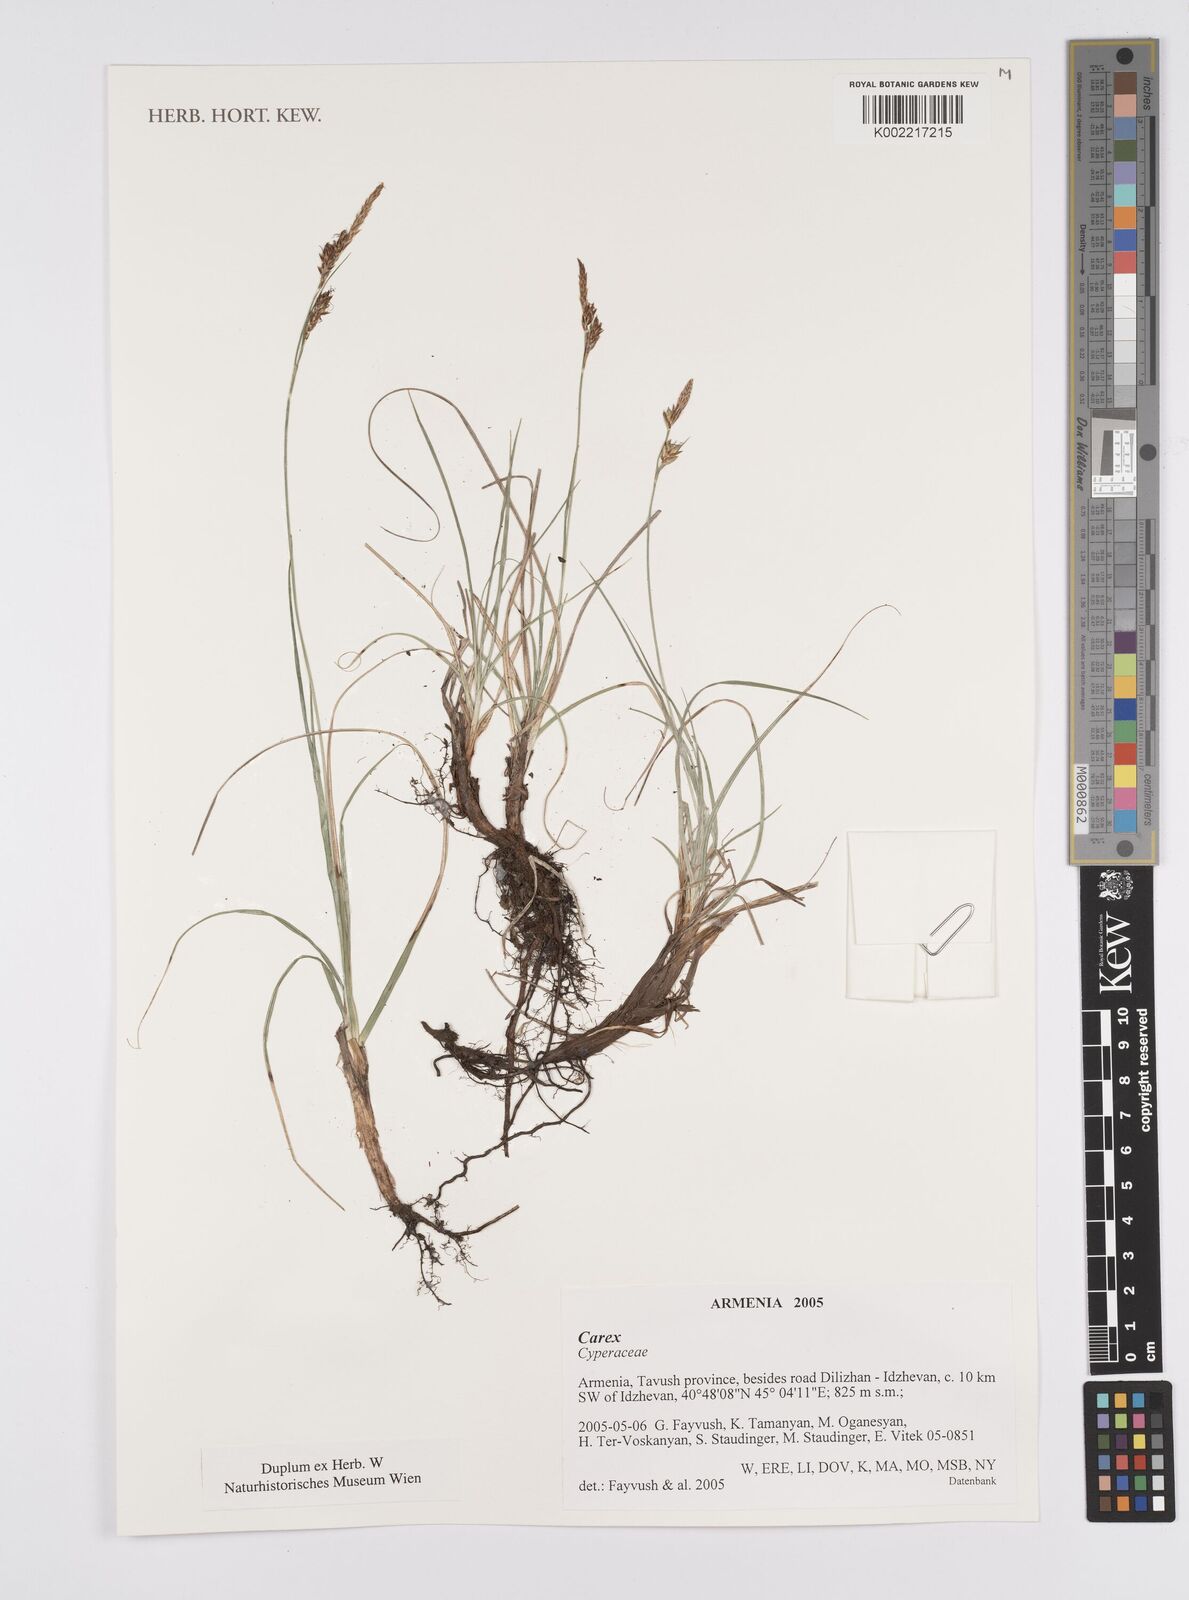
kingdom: Plantae
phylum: Tracheophyta
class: Liliopsida
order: Poales
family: Cyperaceae
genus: Carex
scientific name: Carex
